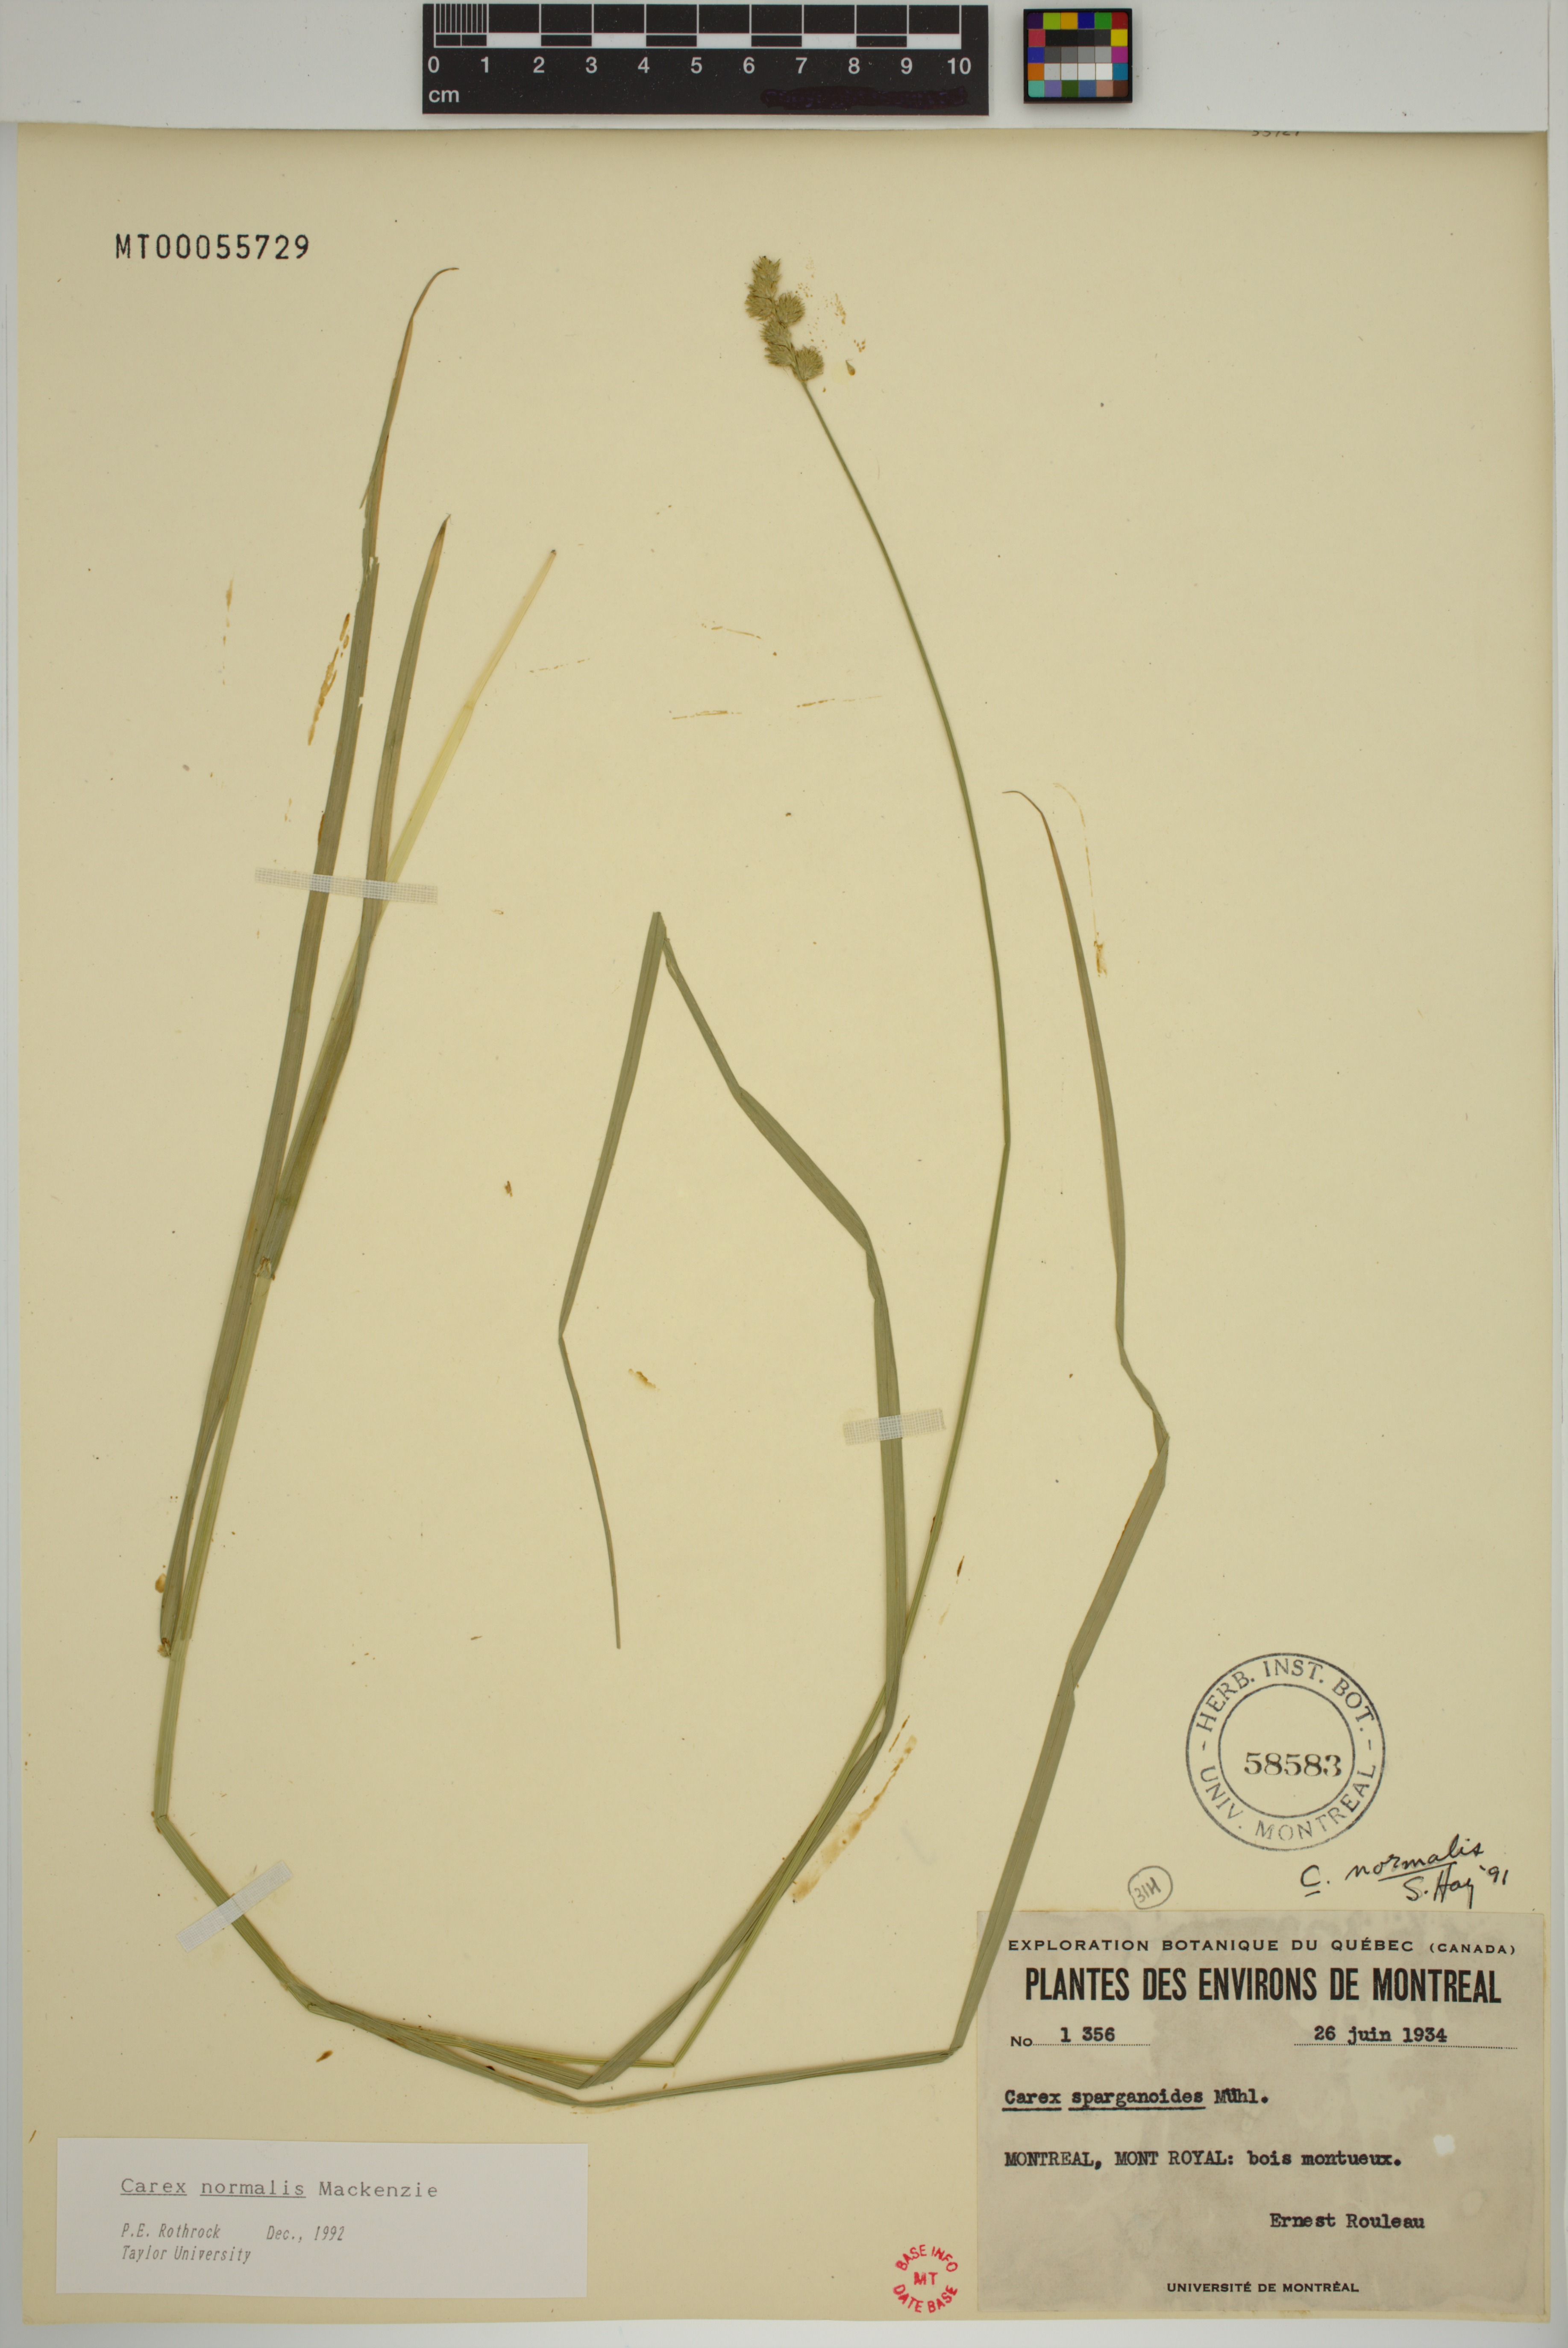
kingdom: Plantae
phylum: Tracheophyta
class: Liliopsida
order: Poales
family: Cyperaceae
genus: Carex
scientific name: Carex normalis
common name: Greater straw sedge
